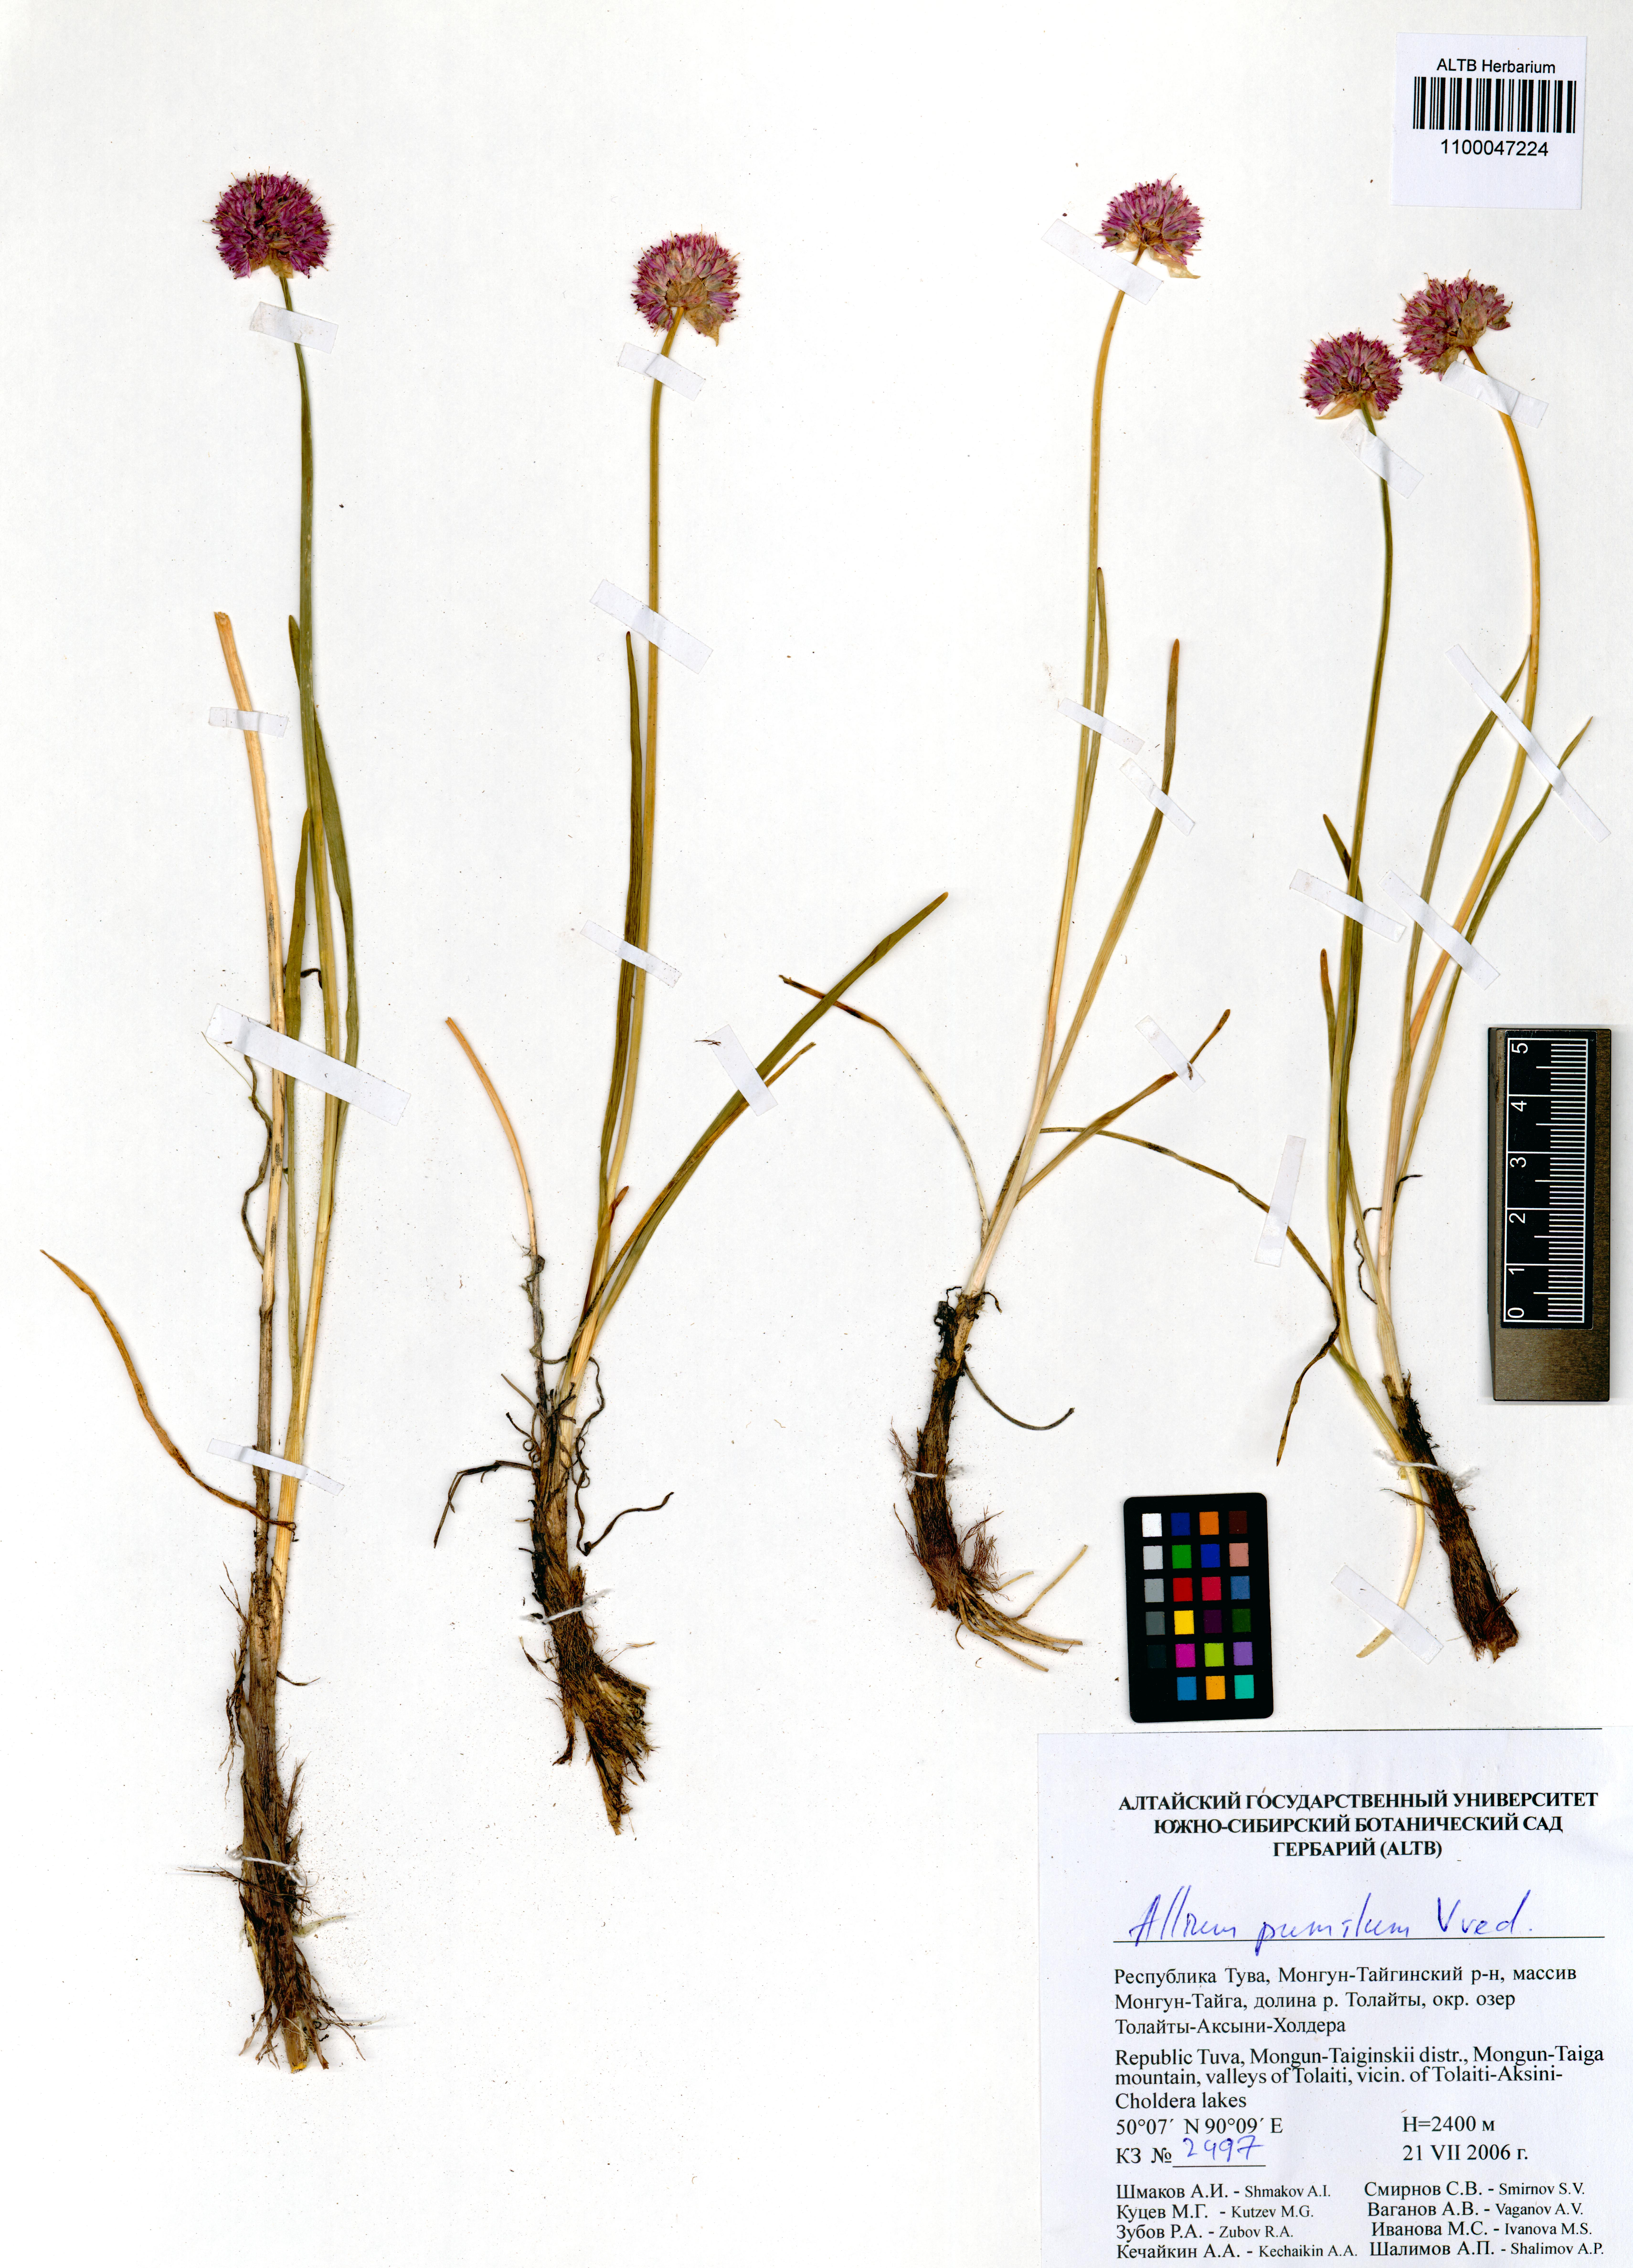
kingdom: Plantae
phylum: Tracheophyta
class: Liliopsida
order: Asparagales
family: Amaryllidaceae
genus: Allium
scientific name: Allium pumilum
